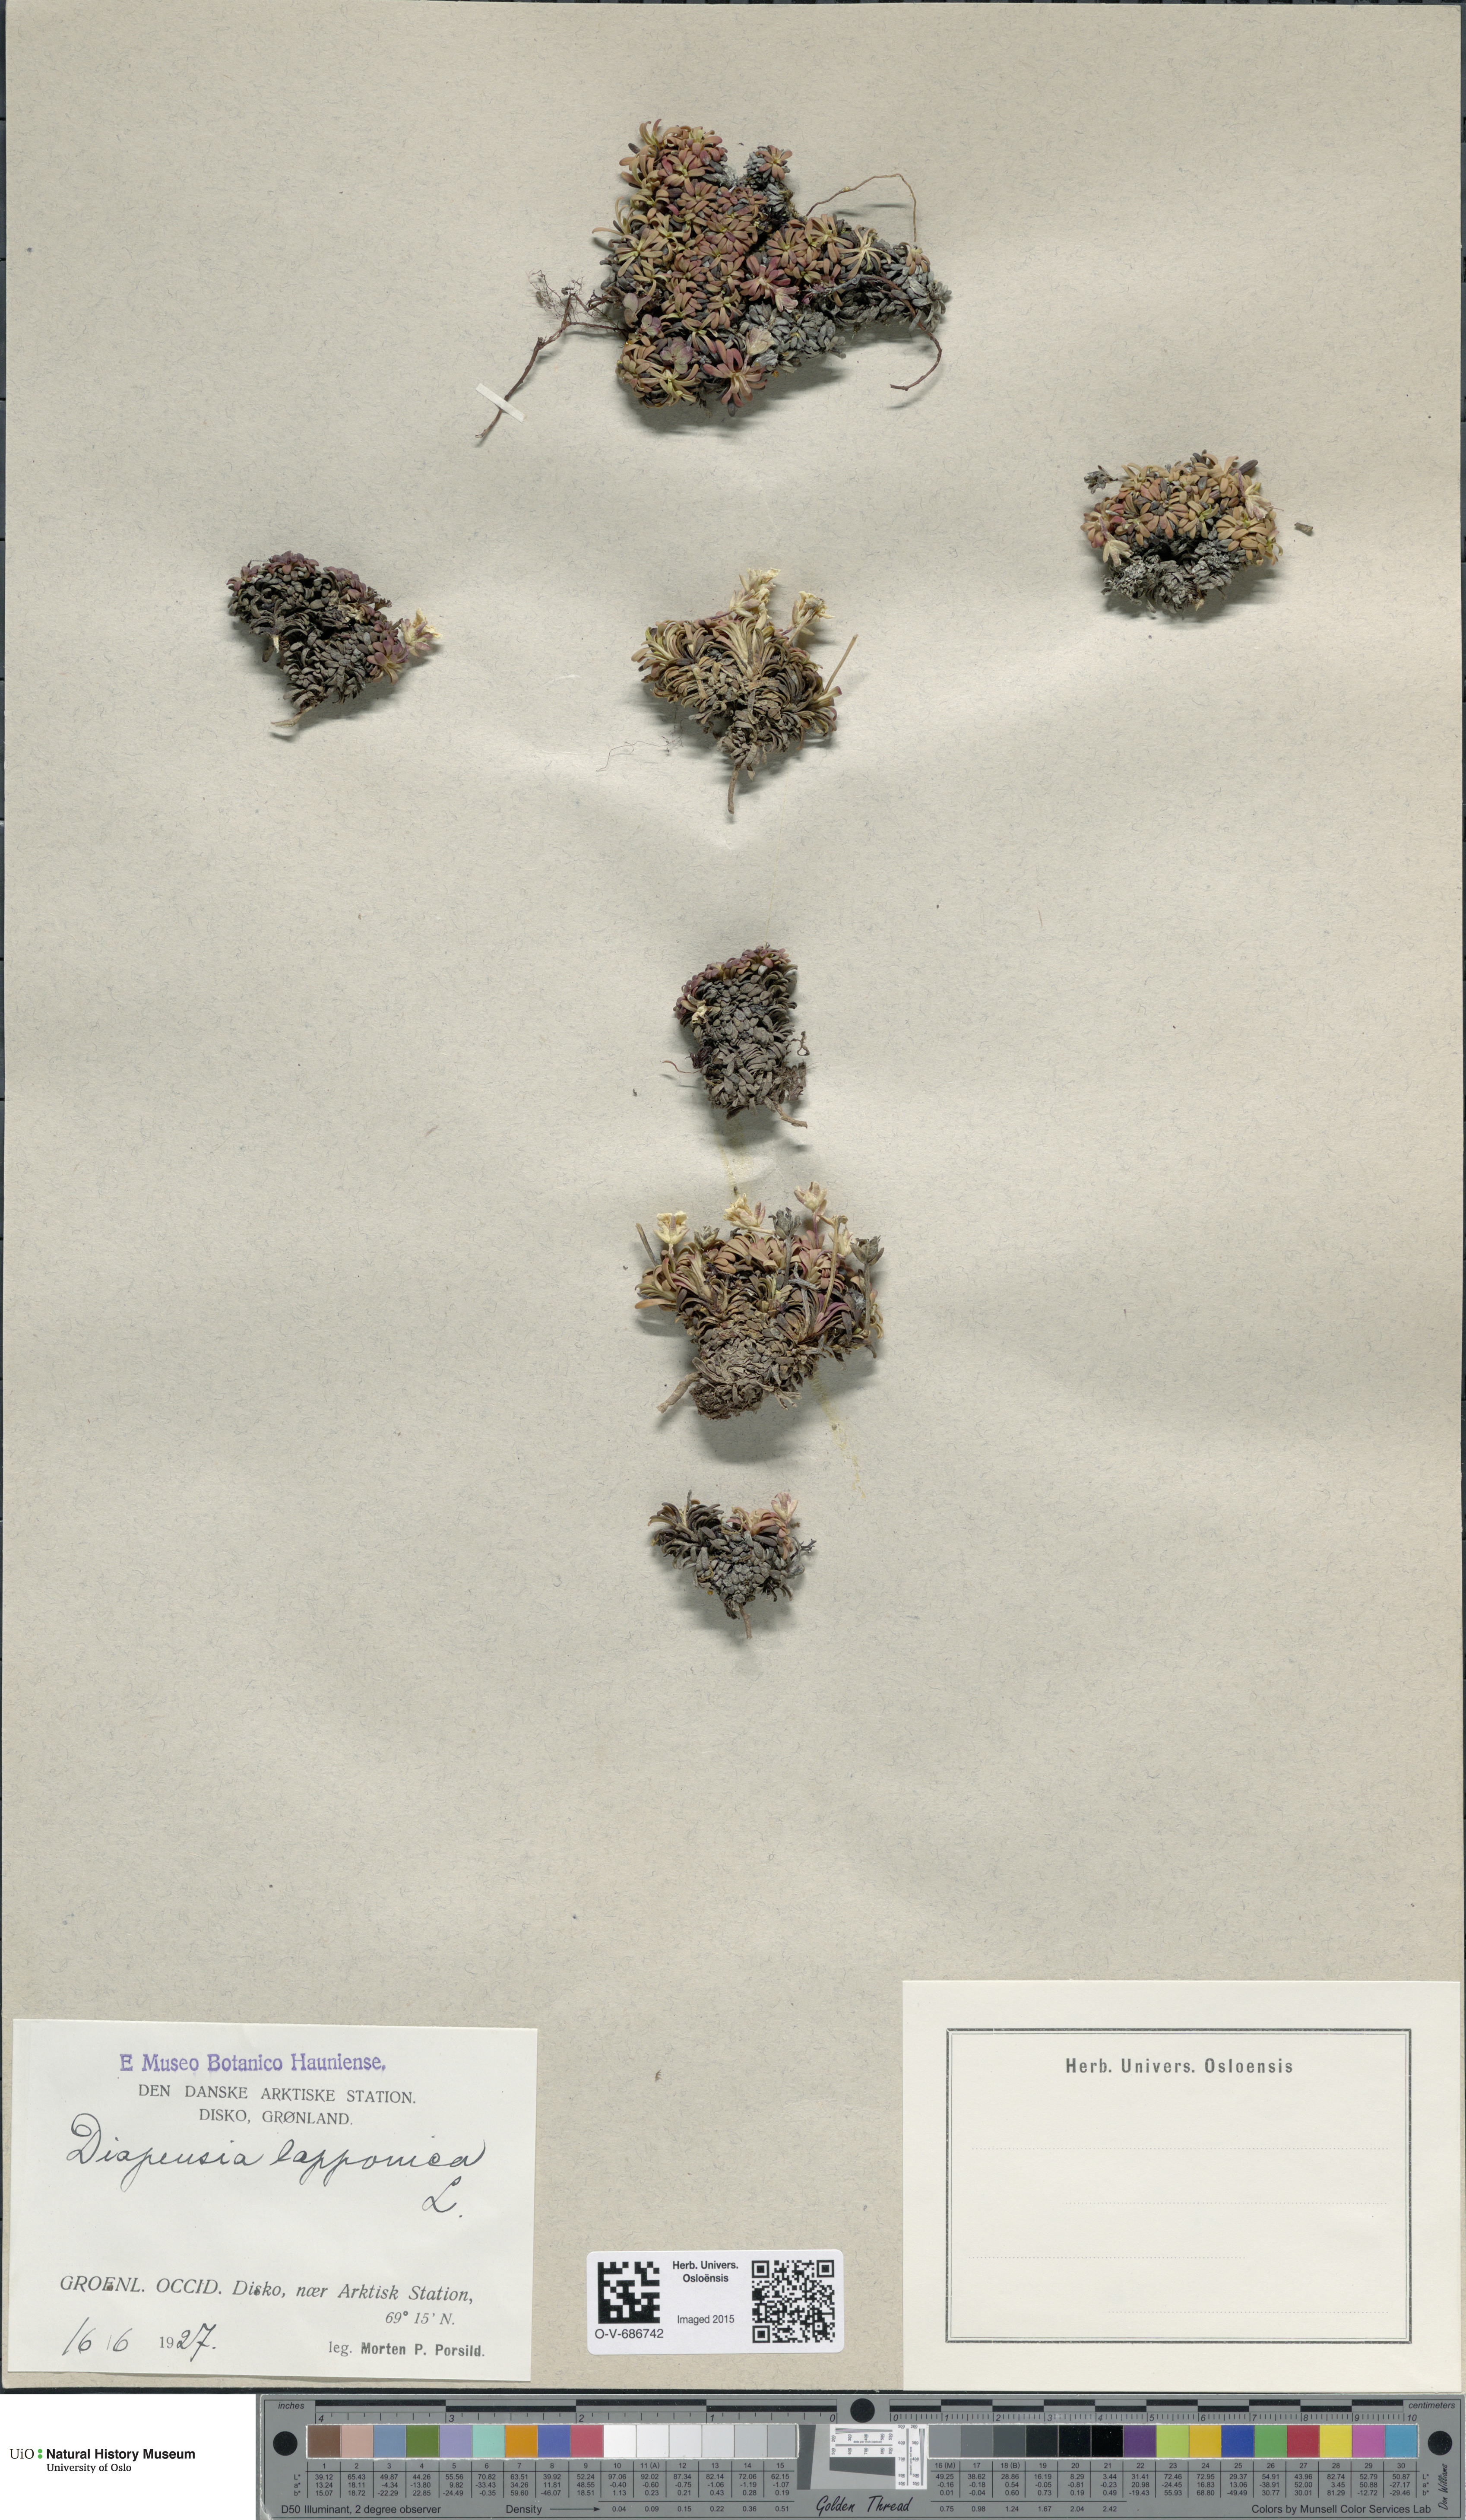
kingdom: Plantae
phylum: Tracheophyta
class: Magnoliopsida
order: Ericales
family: Diapensiaceae
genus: Diapensia
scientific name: Diapensia lapponica
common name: Diapensia
